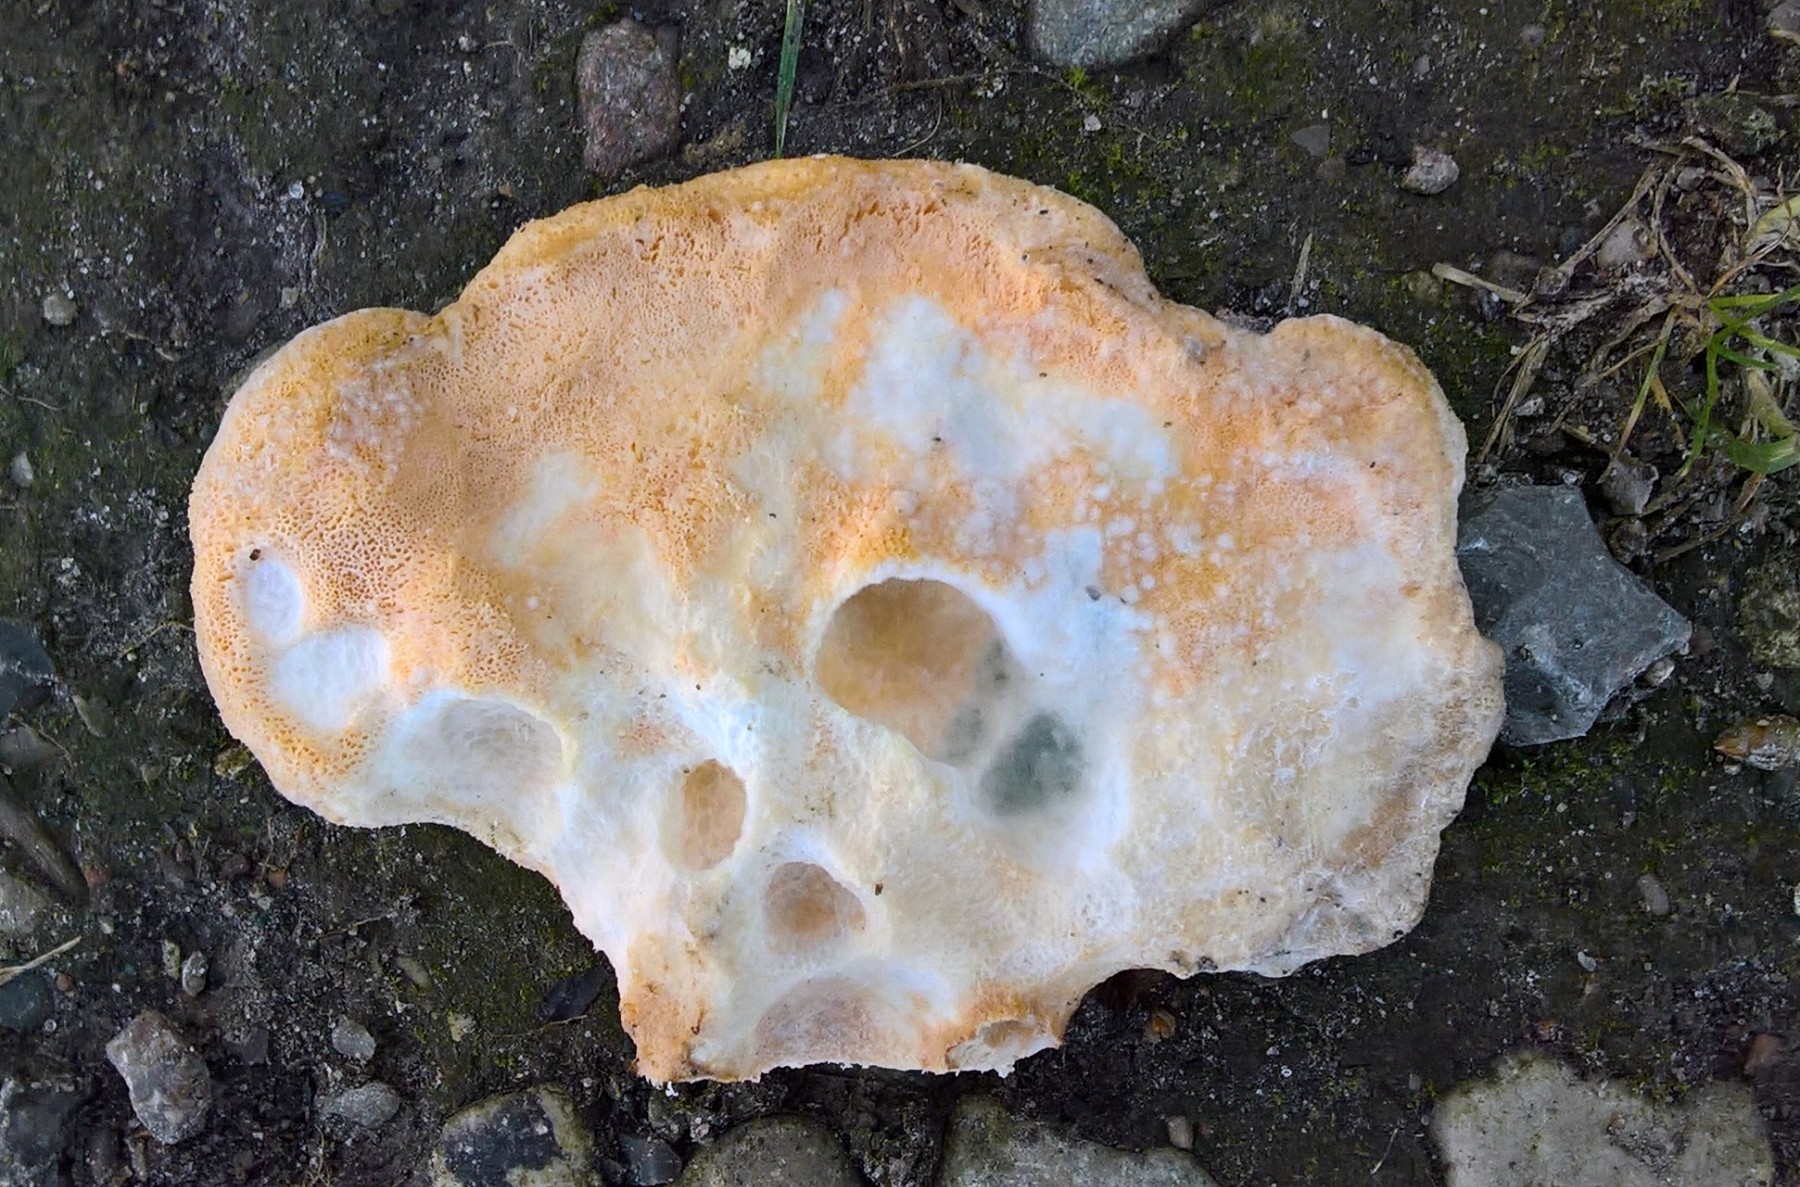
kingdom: Fungi
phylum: Basidiomycota
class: Agaricomycetes
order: Polyporales
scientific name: Polyporales
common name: poresvampordenen
